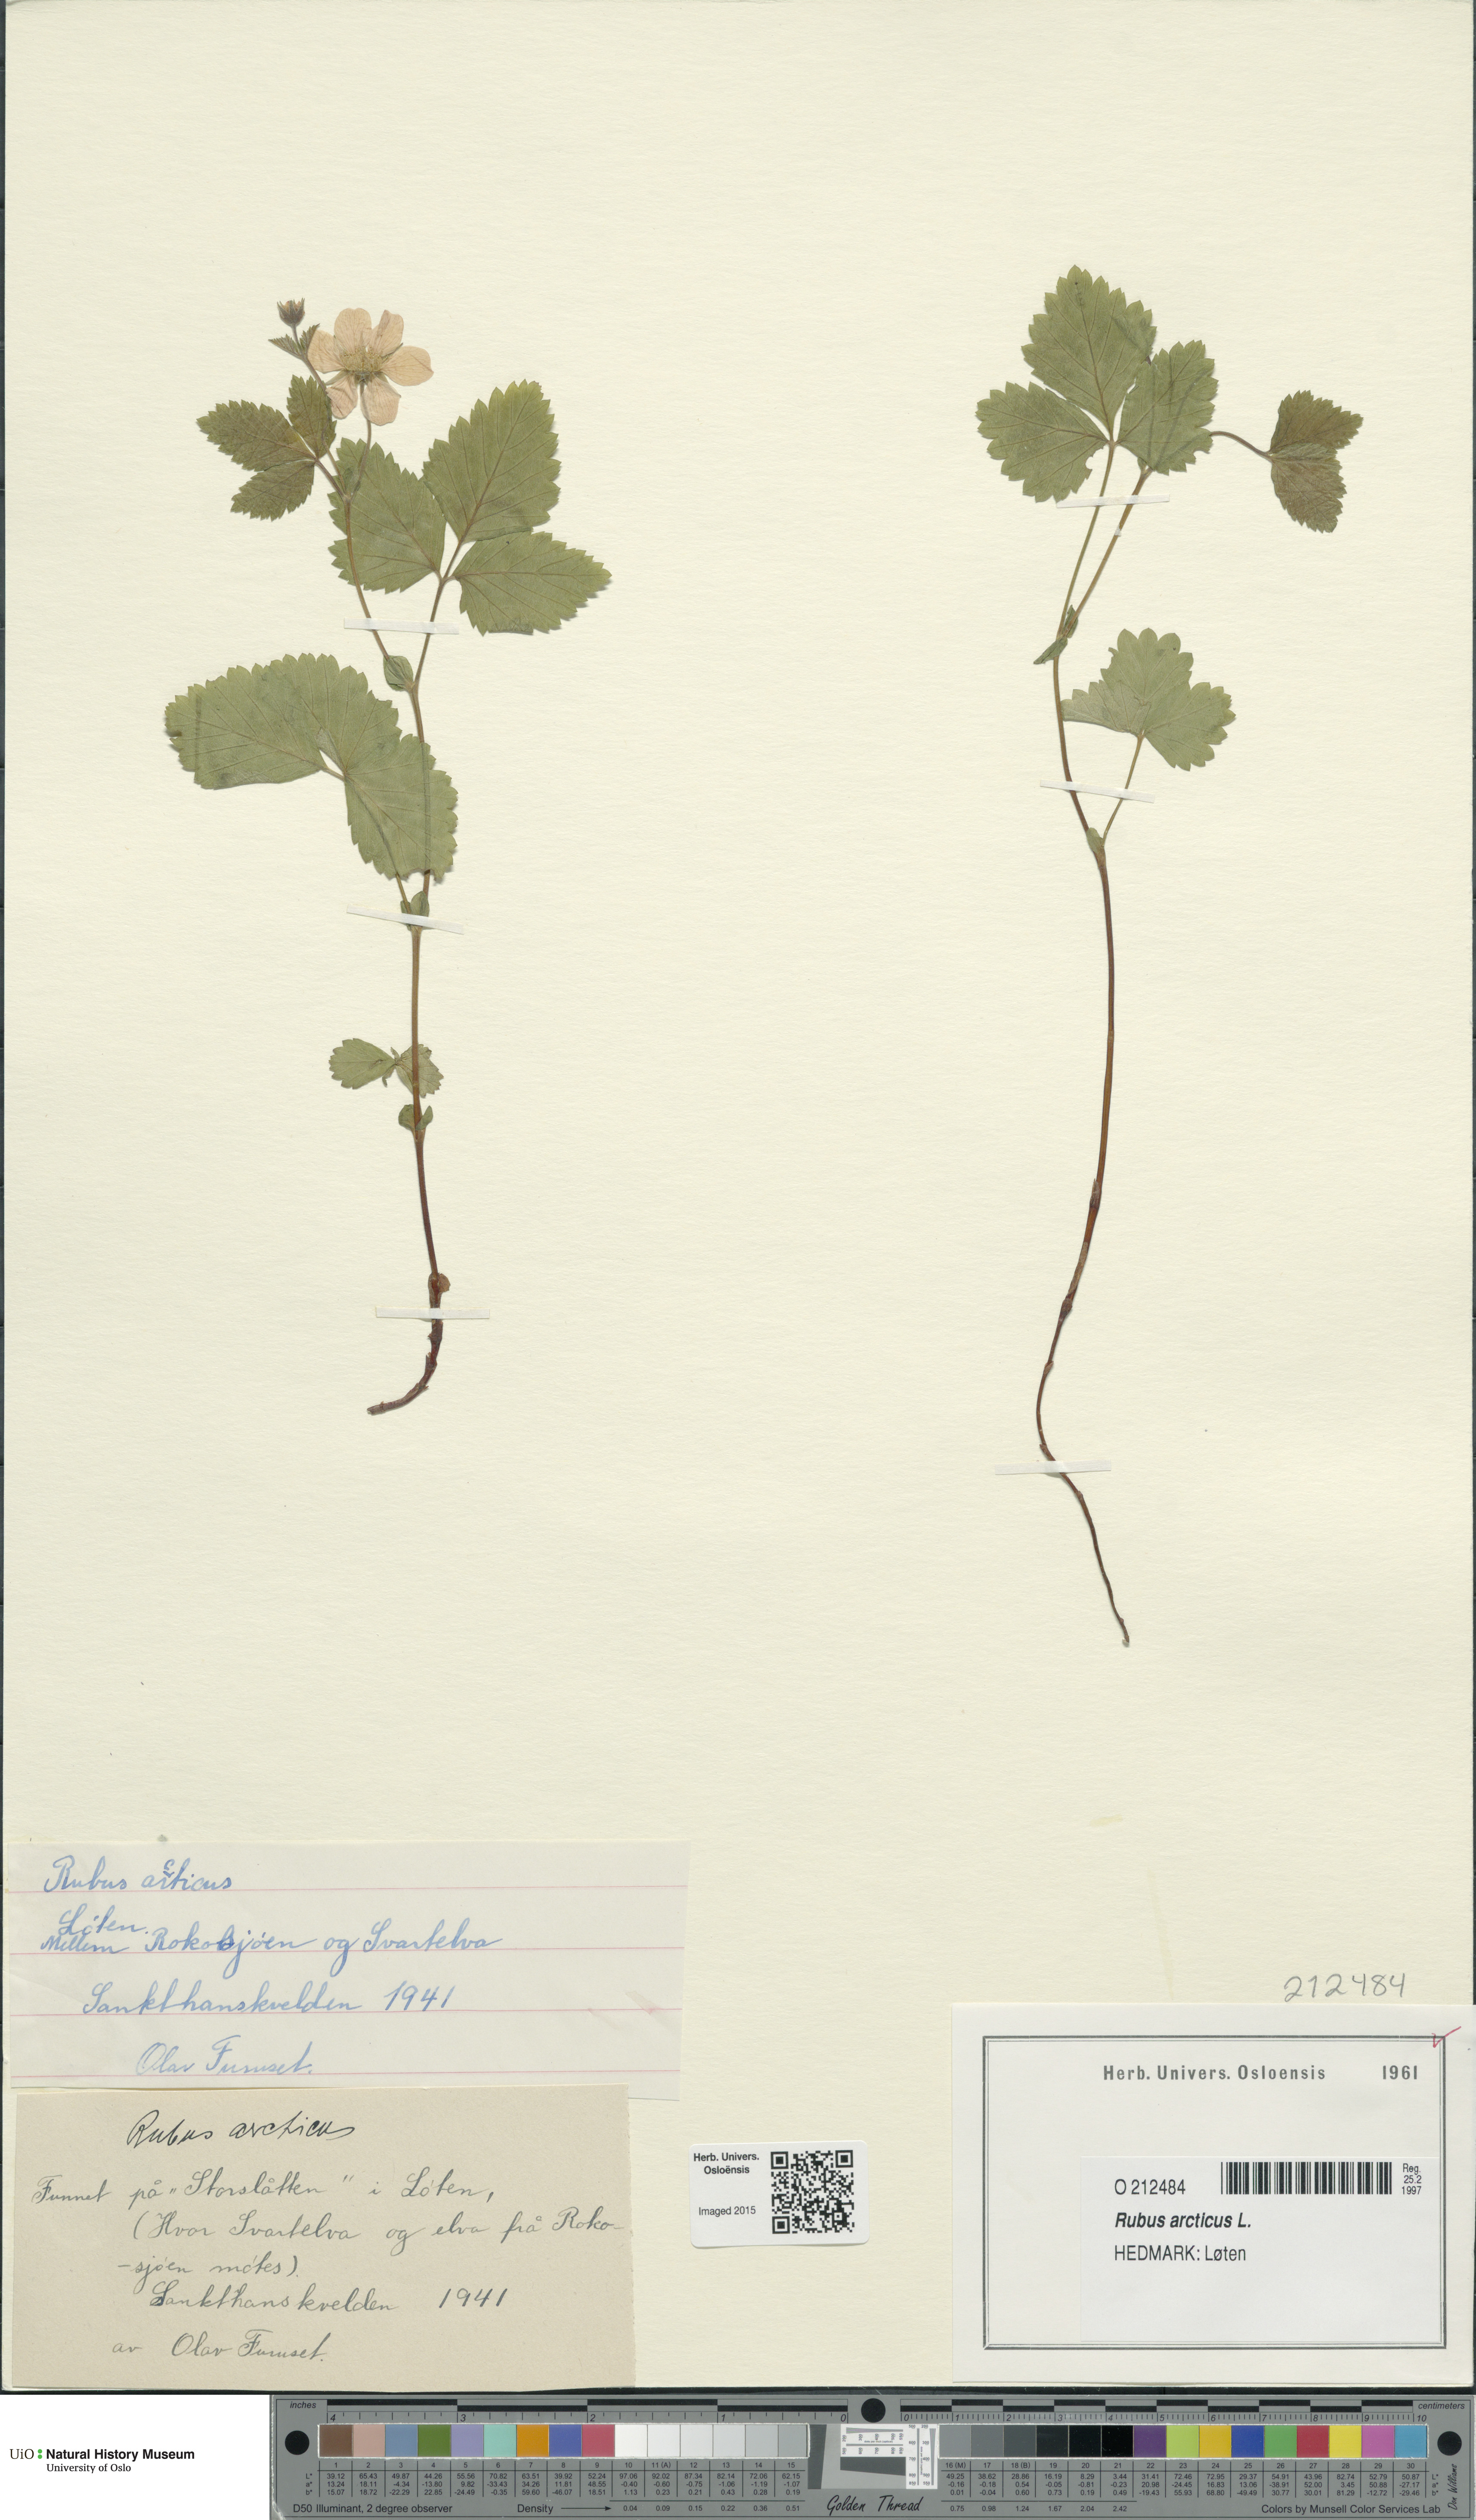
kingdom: Plantae
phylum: Tracheophyta
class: Magnoliopsida
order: Rosales
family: Rosaceae
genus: Rubus
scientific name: Rubus arcticus
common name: Arctic bramble
